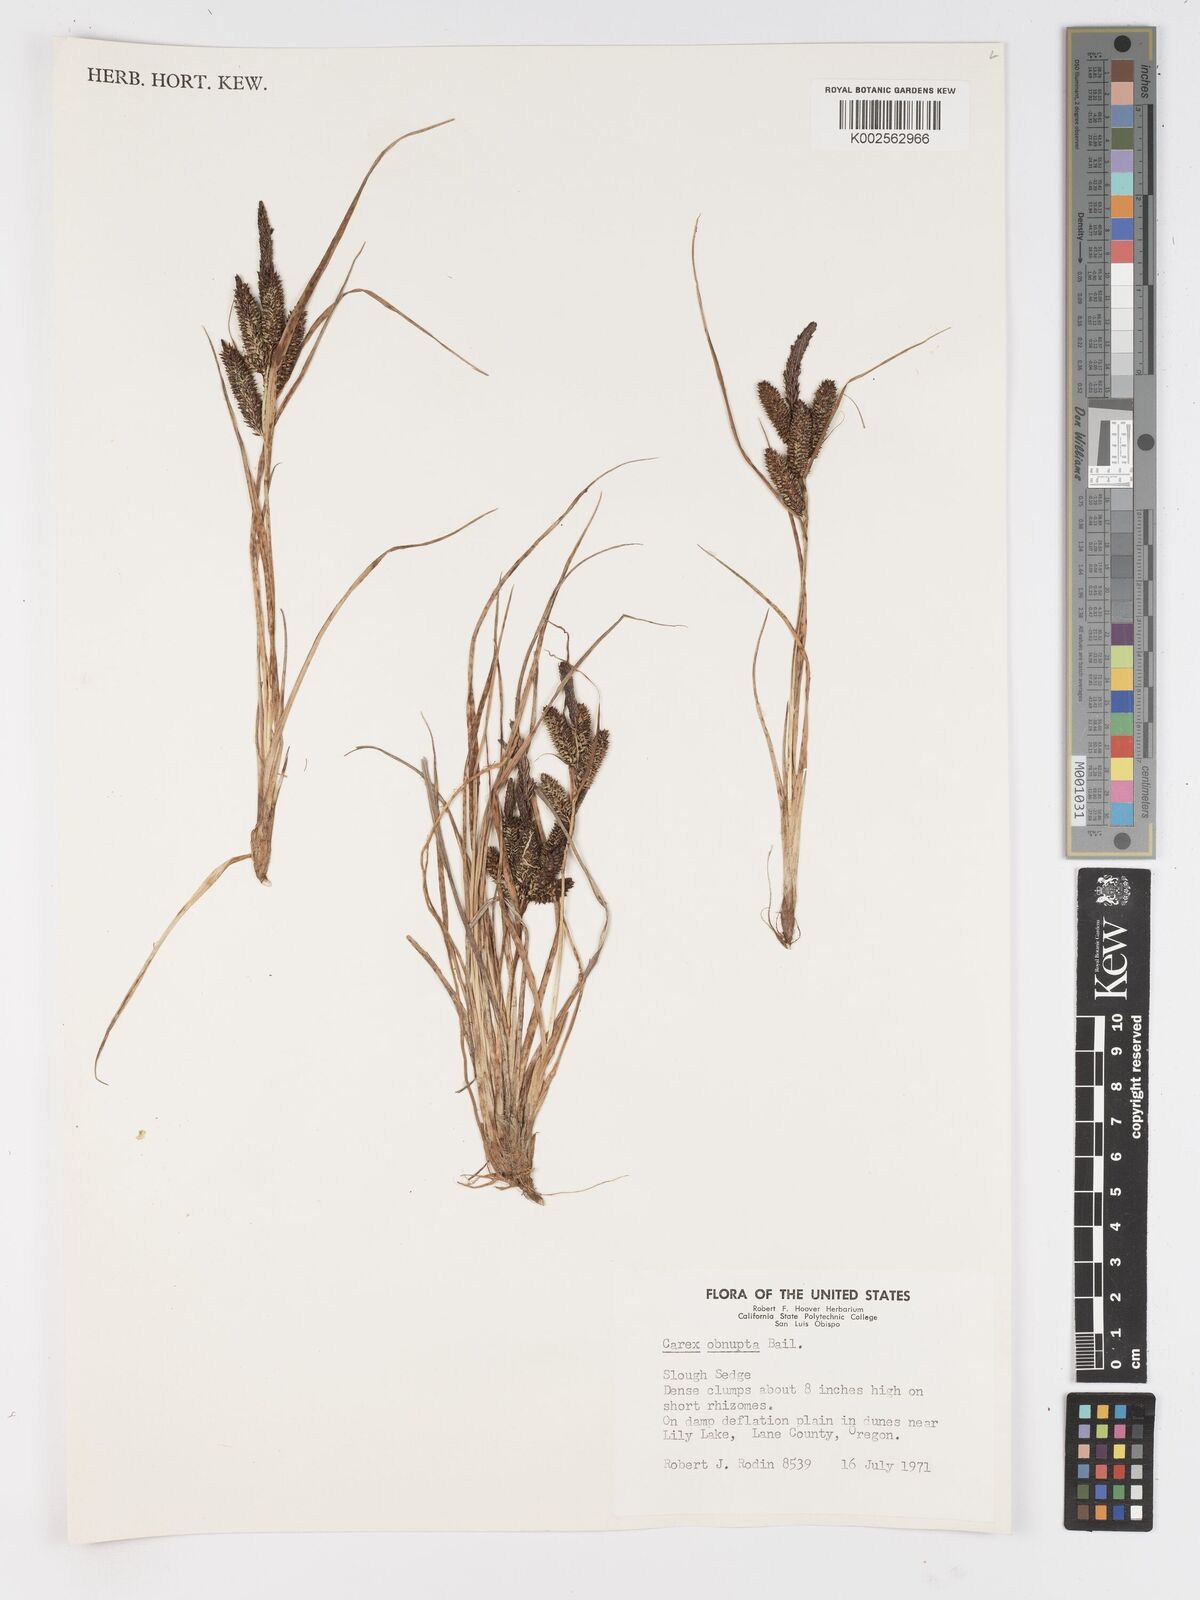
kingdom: Plantae
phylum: Tracheophyta
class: Liliopsida
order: Poales
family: Cyperaceae
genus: Carex
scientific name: Carex obnupta
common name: Slough sedge
